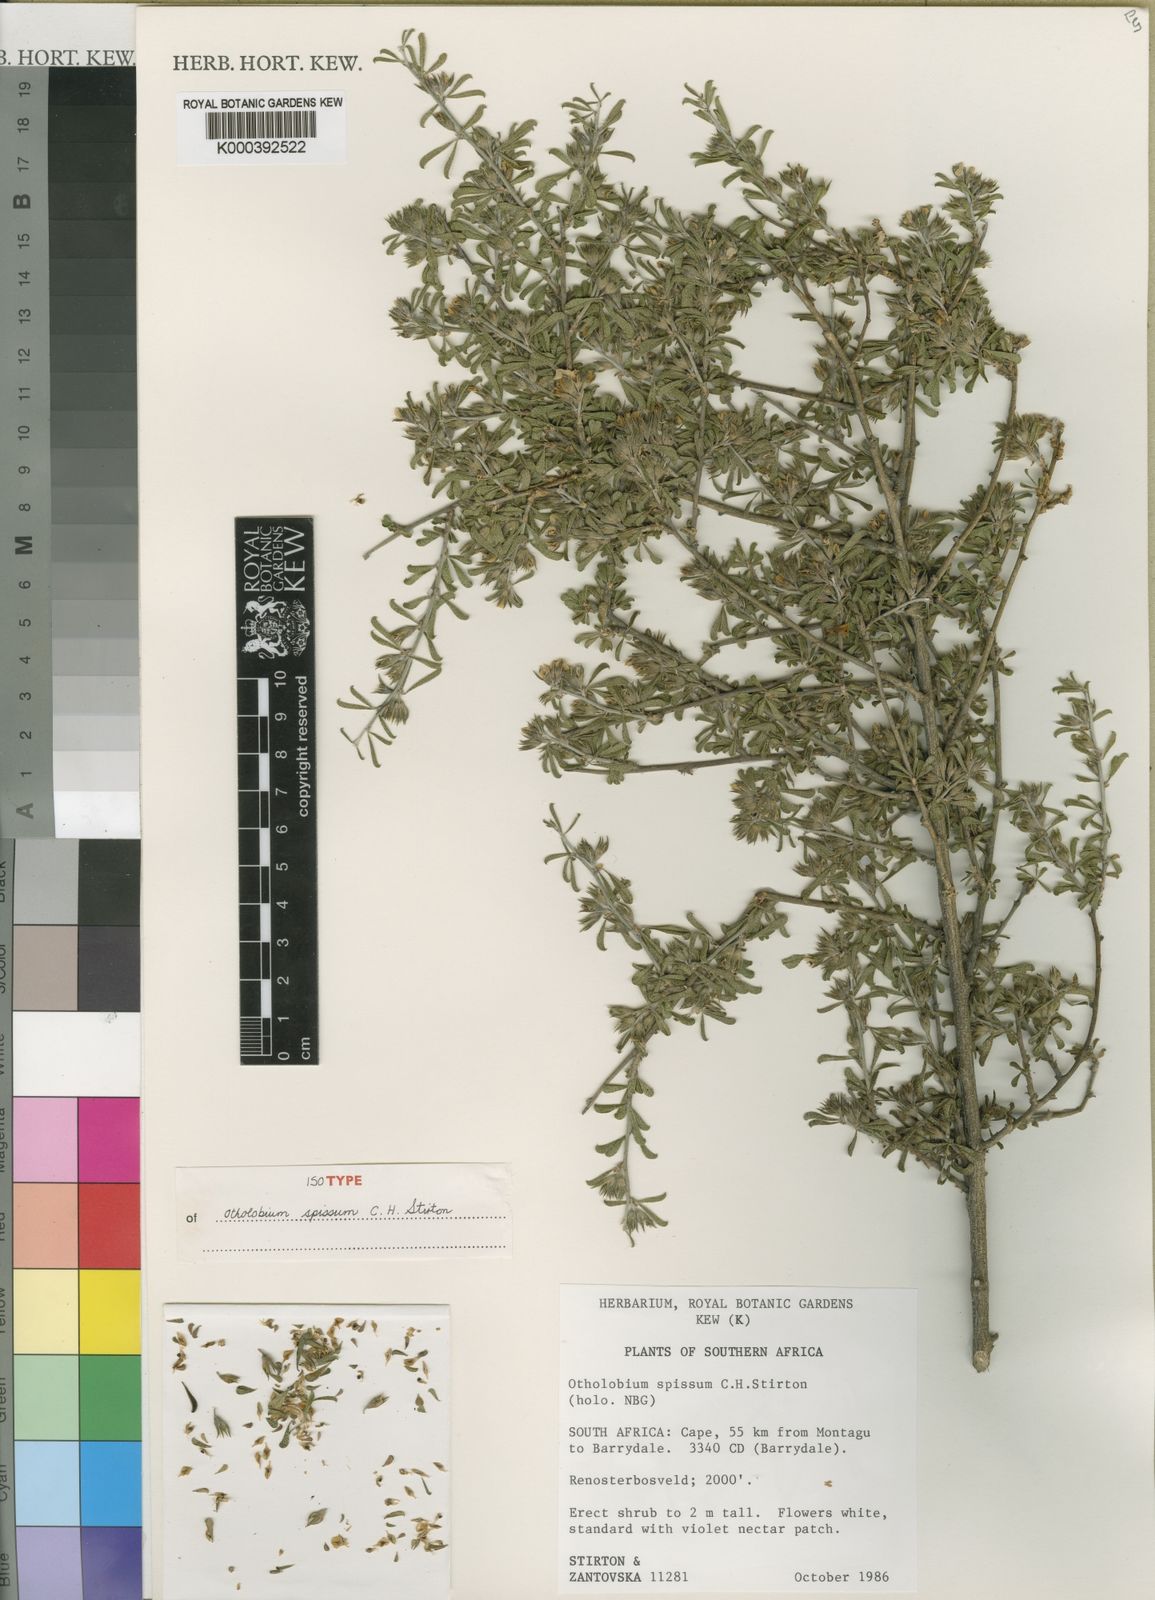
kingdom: Plantae
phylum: Tracheophyta
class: Magnoliopsida
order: Fabales
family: Fabaceae
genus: Psoralea
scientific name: Psoralea spissa
